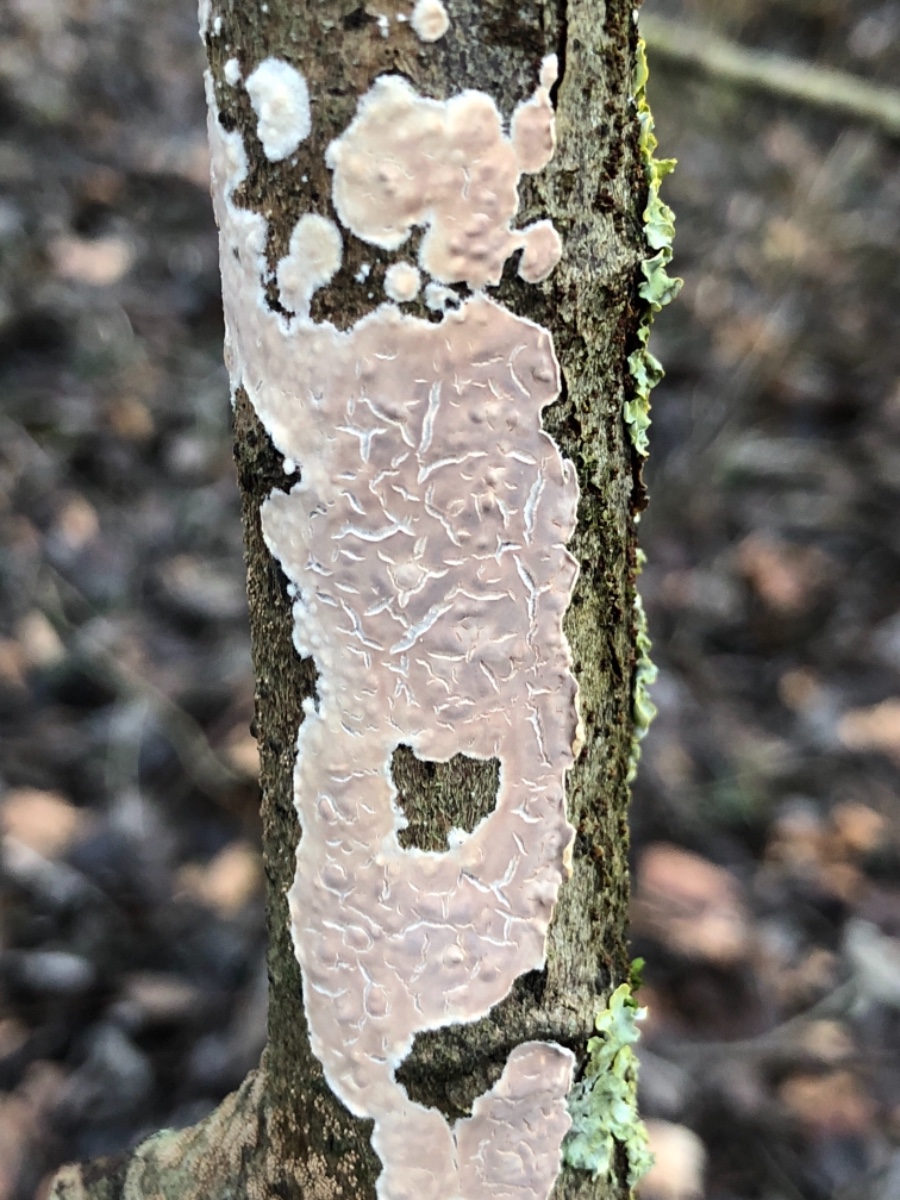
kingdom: Fungi
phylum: Basidiomycota
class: Agaricomycetes
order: Agaricales
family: Physalacriaceae
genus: Cylindrobasidium
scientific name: Cylindrobasidium evolvens
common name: sprækkehinde
